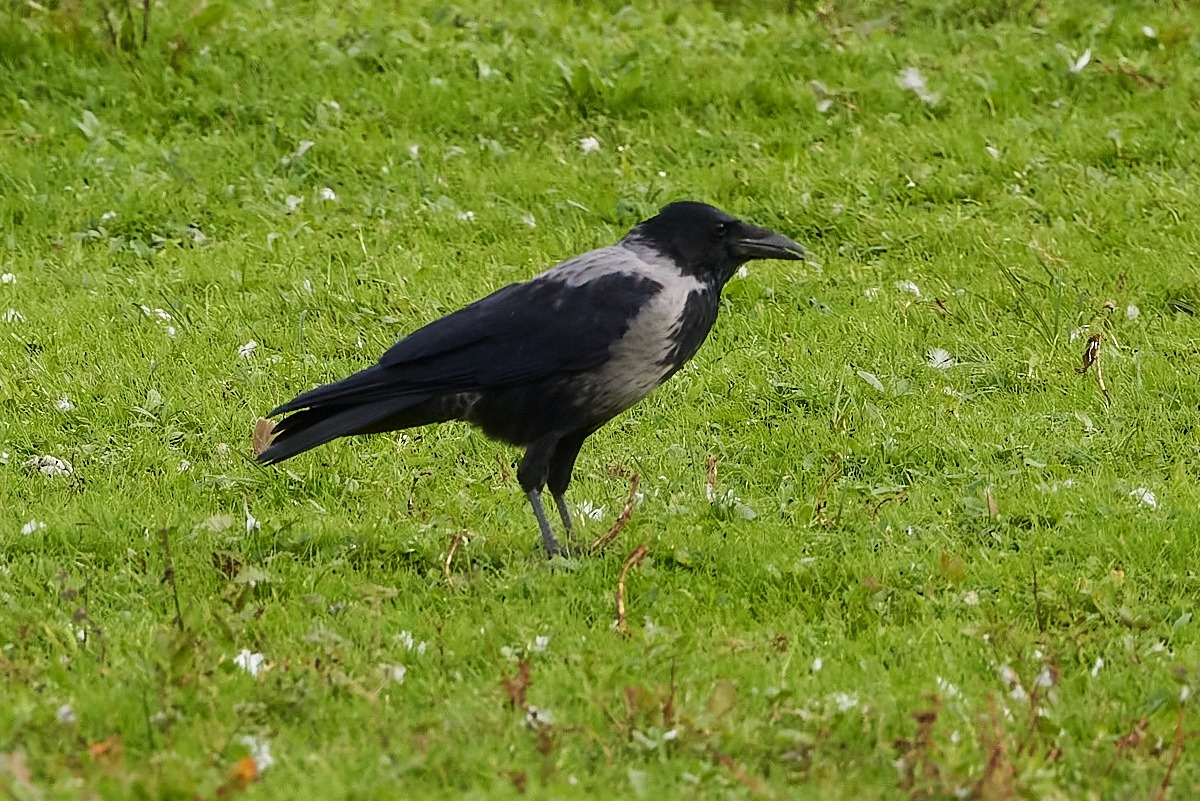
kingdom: Animalia
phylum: Chordata
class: Aves
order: Passeriformes
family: Corvidae
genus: Corvus
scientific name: Corvus cornix
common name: Gråkrage
